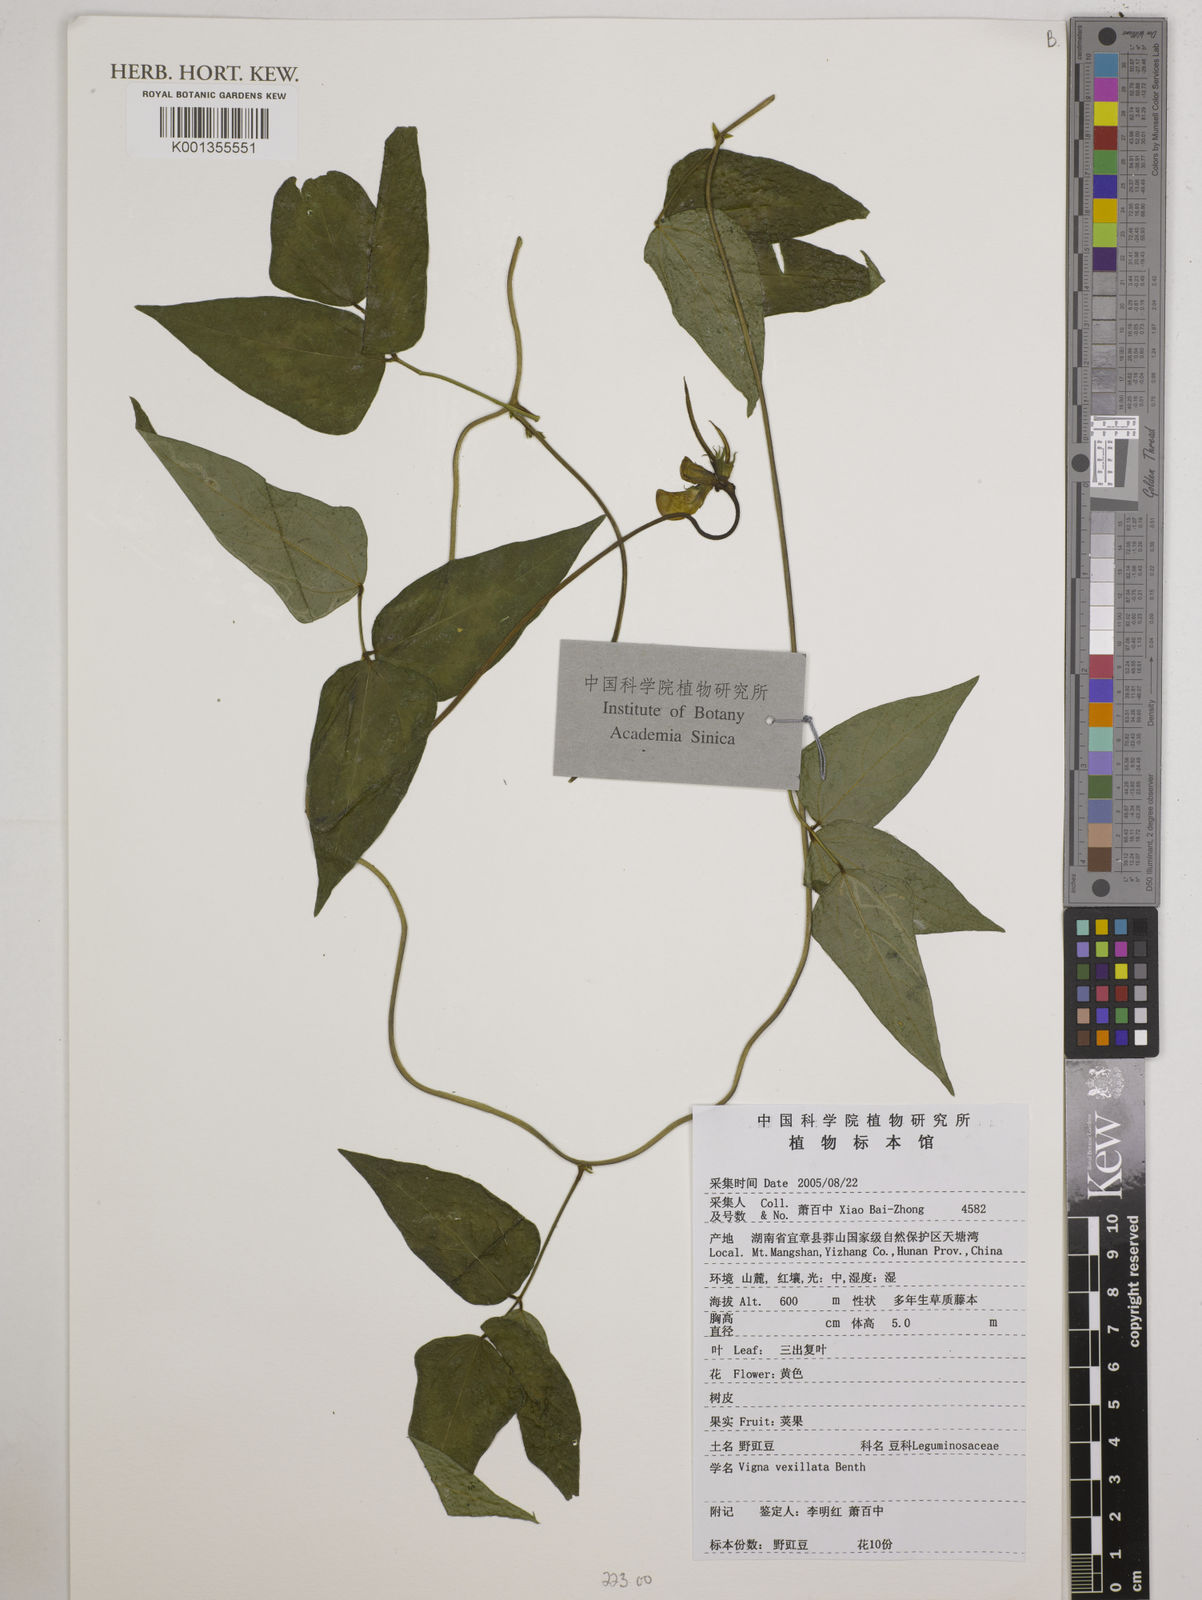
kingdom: Plantae
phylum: Tracheophyta
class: Magnoliopsida
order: Fabales
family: Fabaceae
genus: Vigna
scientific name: Vigna vexillata
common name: Zombi pea
